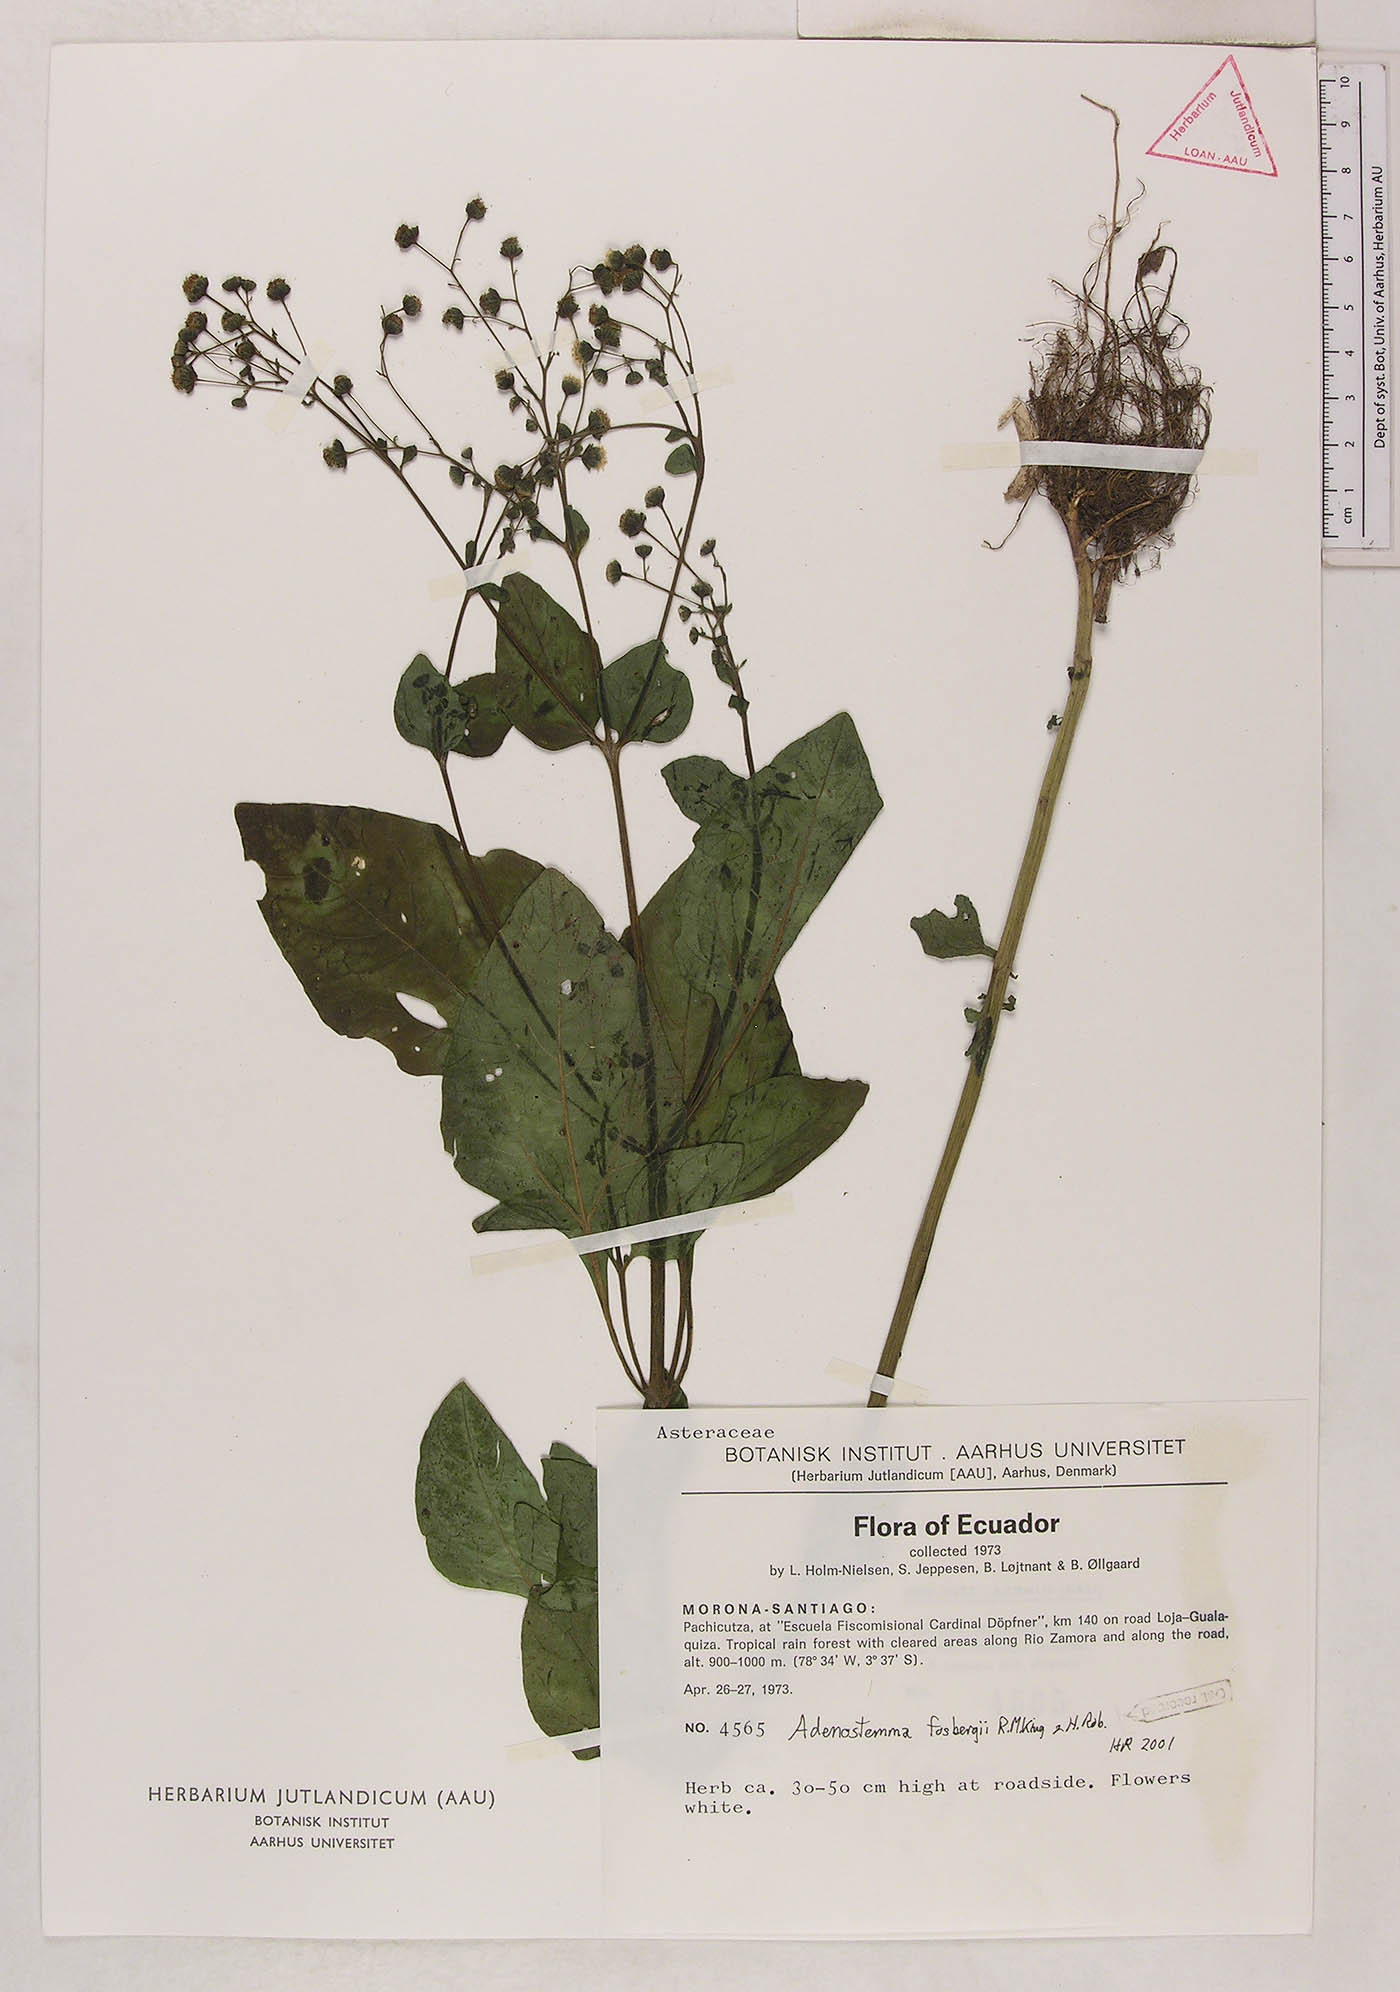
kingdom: Plantae
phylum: Tracheophyta
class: Magnoliopsida
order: Asterales
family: Asteraceae
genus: Adenostemma
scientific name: Adenostemma fosbergii
